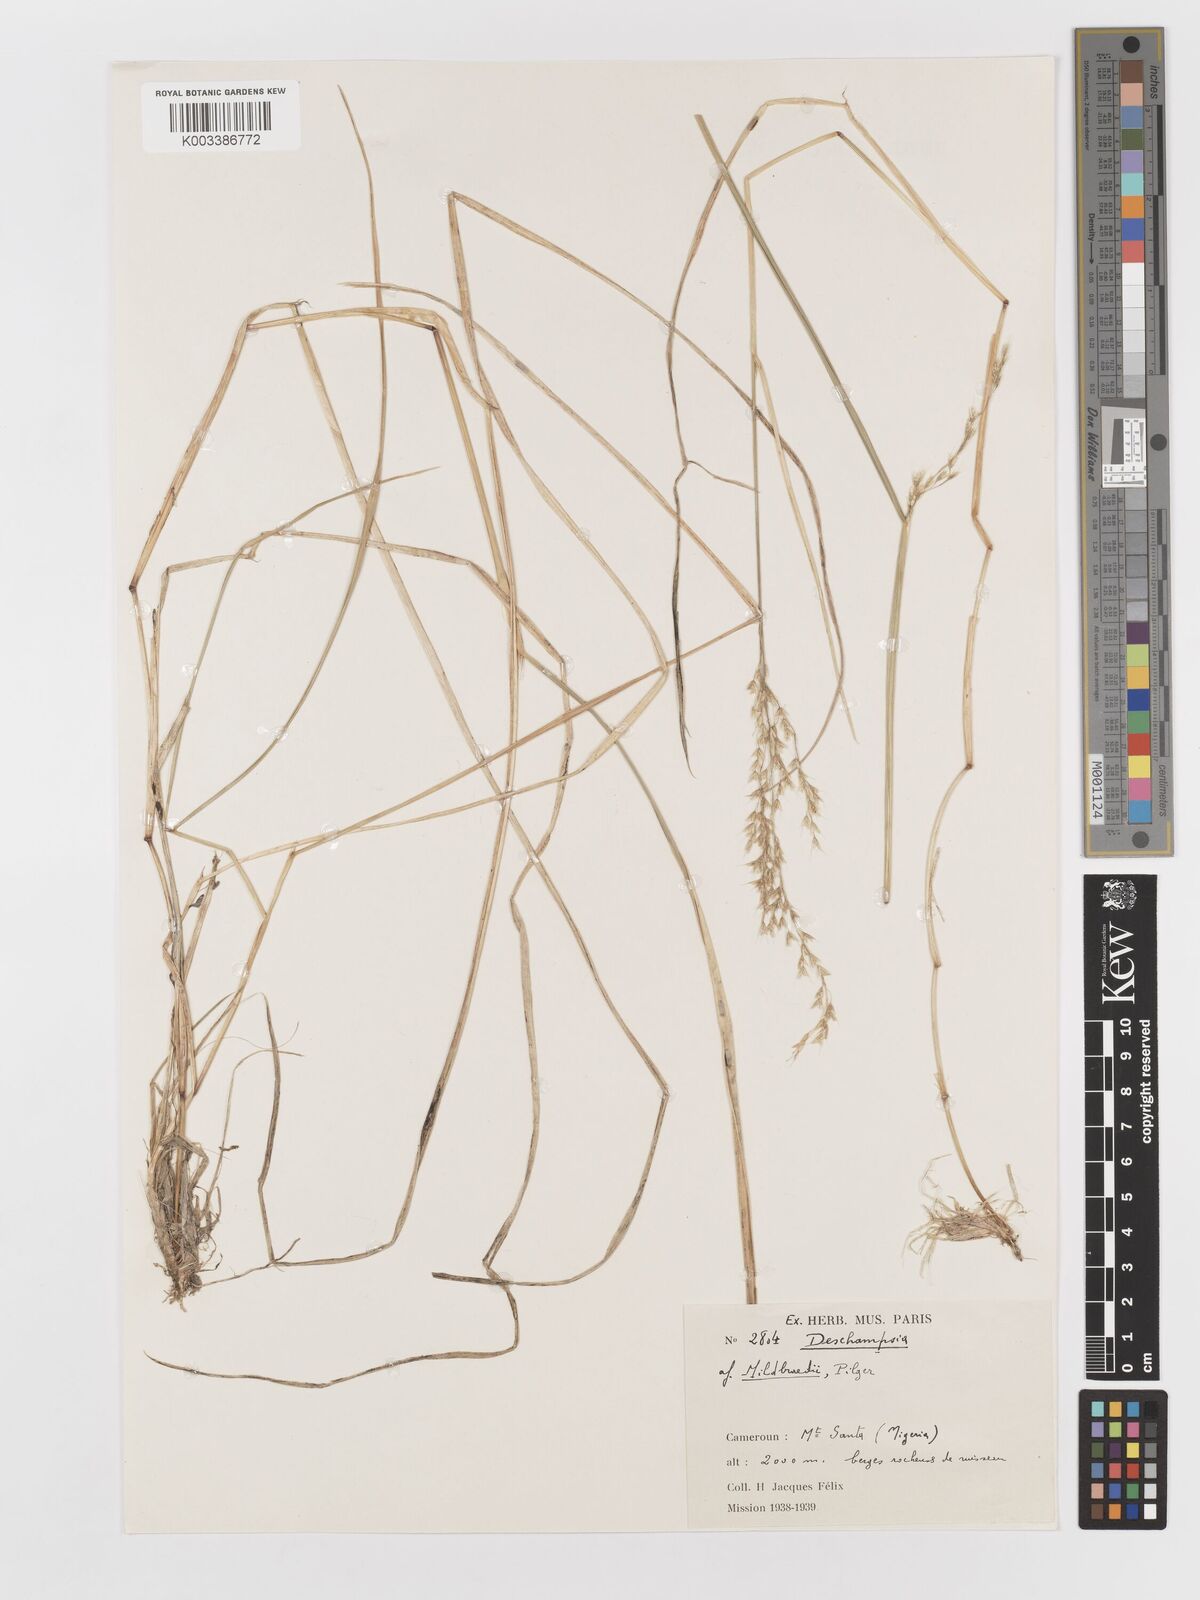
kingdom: Plantae
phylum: Tracheophyta
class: Liliopsida
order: Poales
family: Poaceae
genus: Deschampsia
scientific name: Deschampsia mildbraedii
